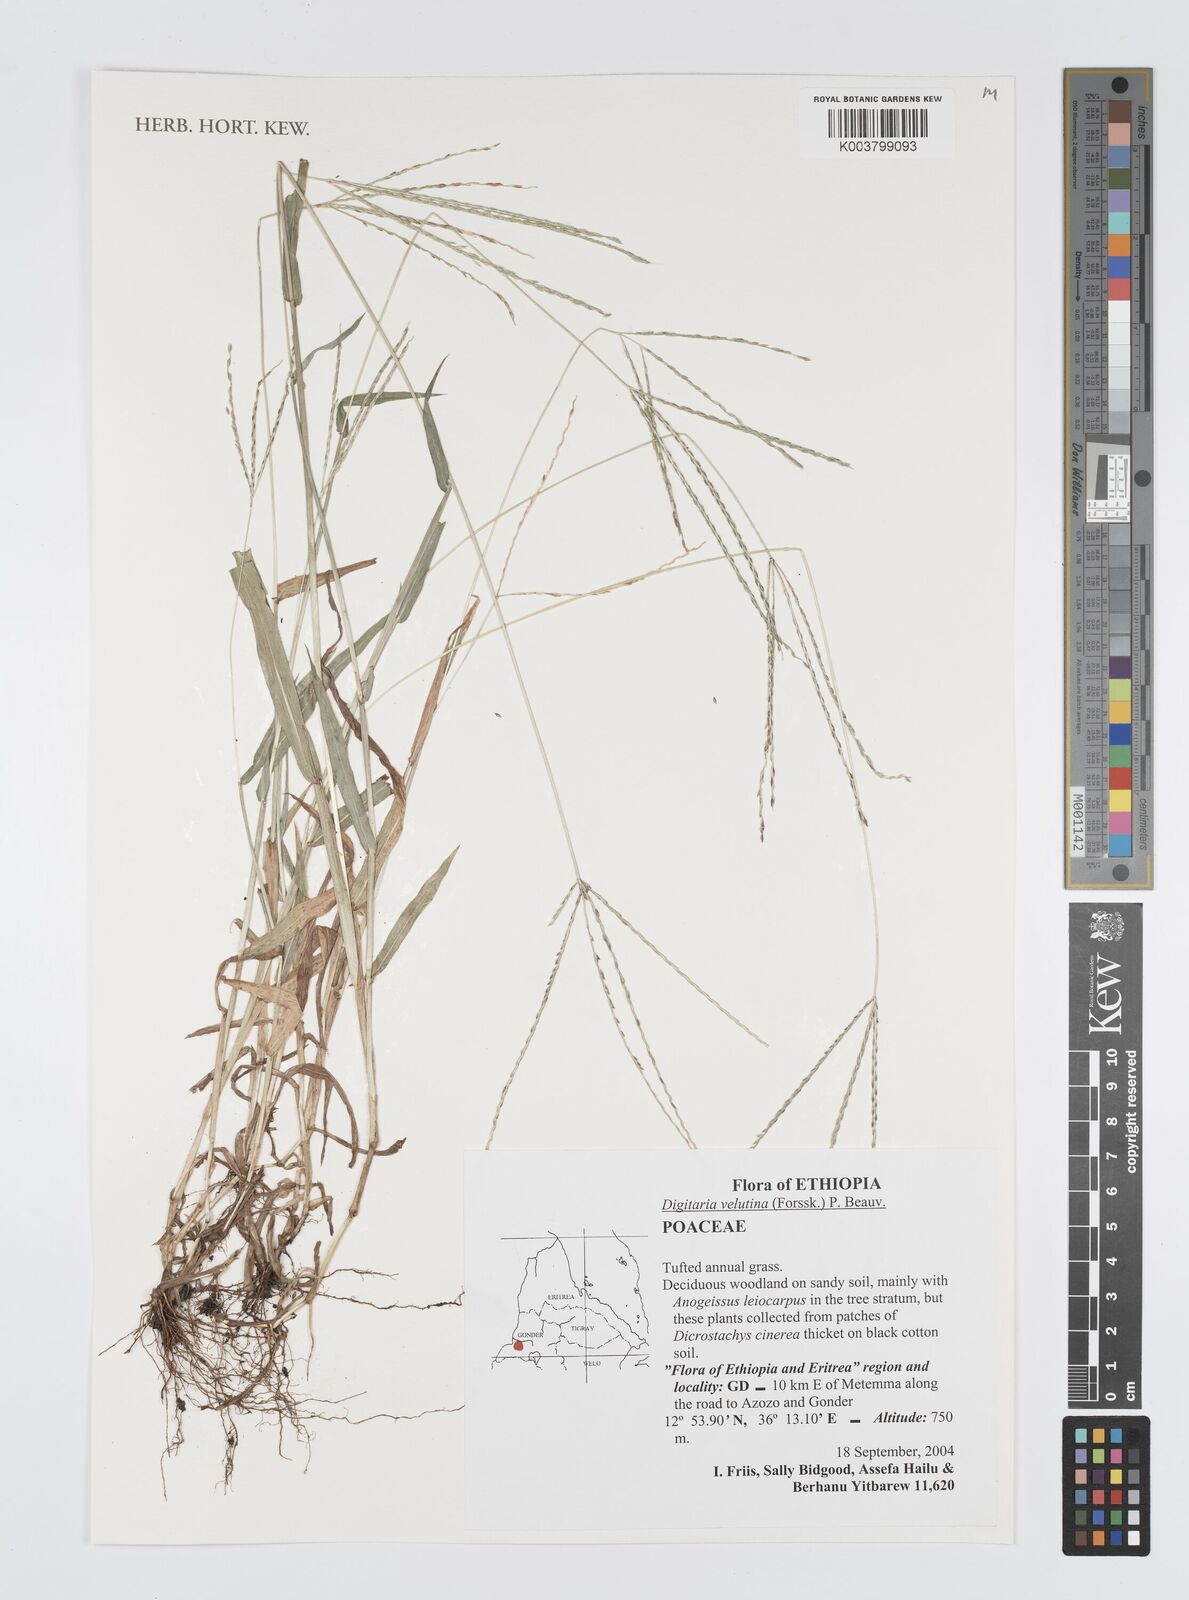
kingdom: Plantae
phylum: Tracheophyta
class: Liliopsida
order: Poales
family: Poaceae
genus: Digitaria
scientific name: Digitaria velutina
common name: Long-plume finger grass
